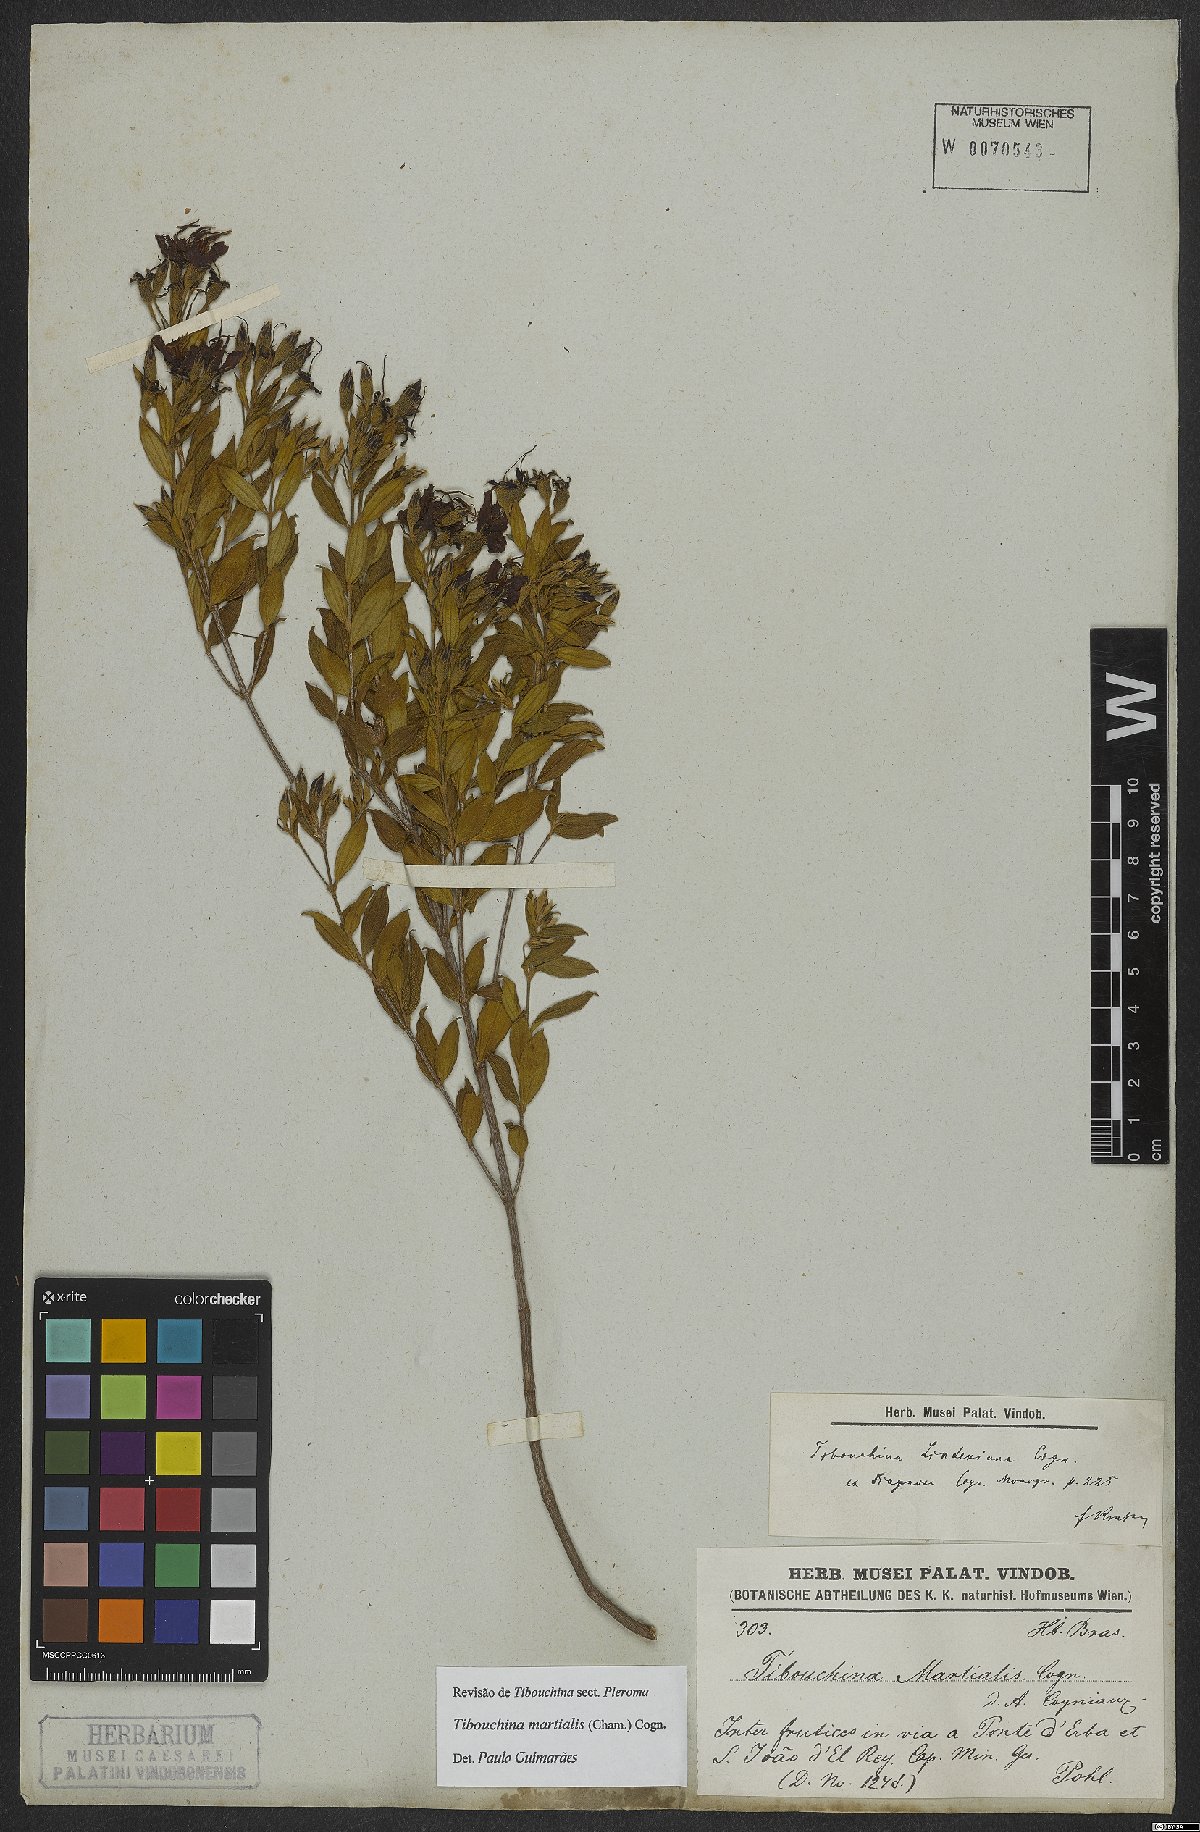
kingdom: Plantae
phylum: Tracheophyta
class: Magnoliopsida
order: Myrtales
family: Melastomataceae
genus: Pleroma
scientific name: Pleroma martiale
